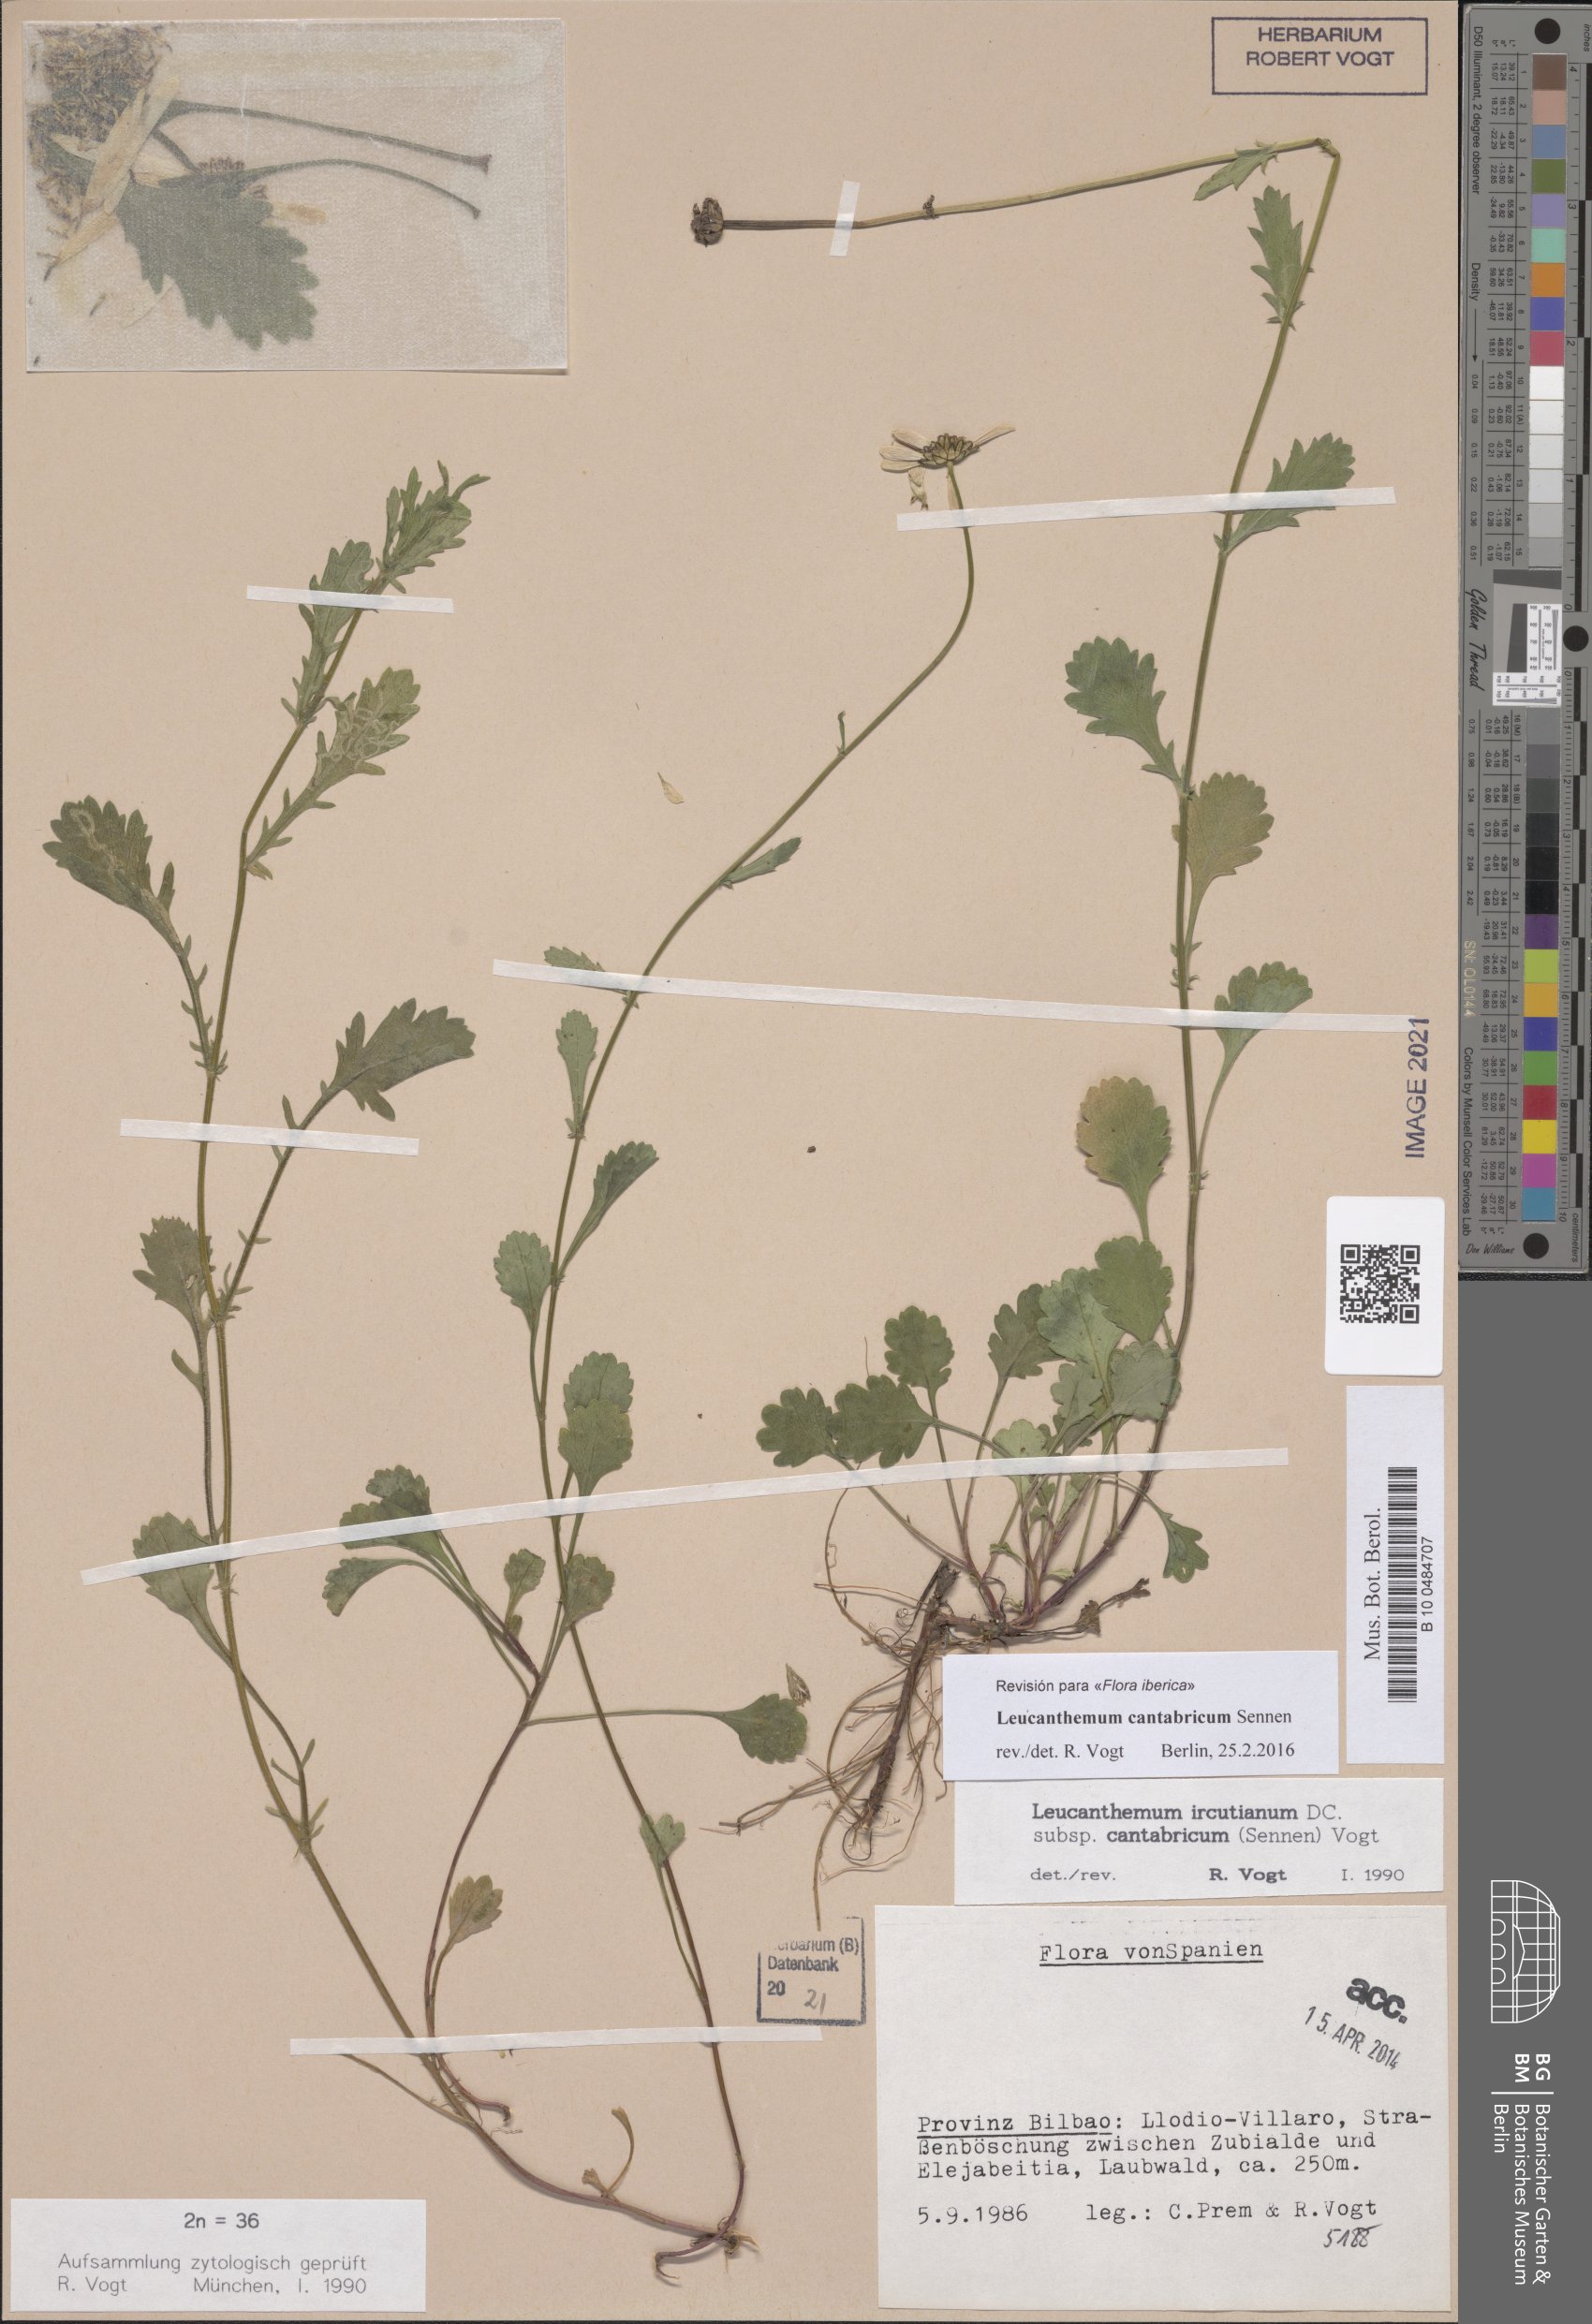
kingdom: Plantae
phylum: Tracheophyta
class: Magnoliopsida
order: Asterales
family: Asteraceae
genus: Leucanthemum
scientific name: Leucanthemum cantabricum
